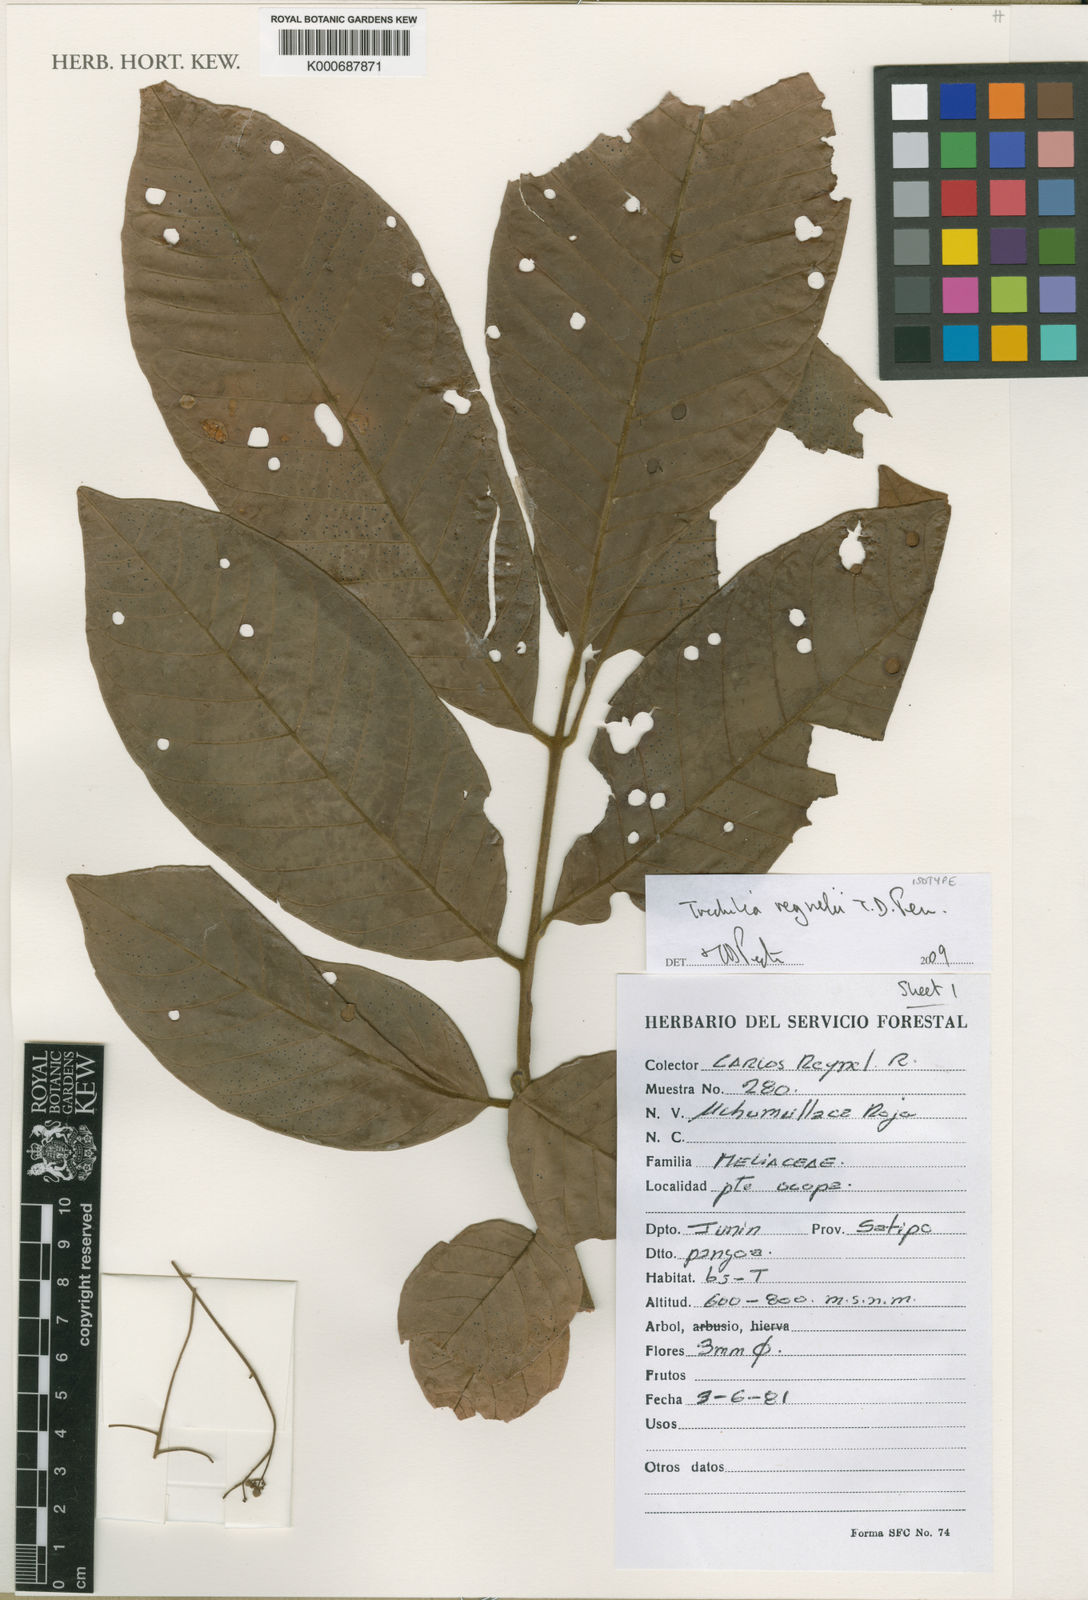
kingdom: Plantae
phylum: Tracheophyta
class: Magnoliopsida
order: Sapindales
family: Meliaceae
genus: Trichilia
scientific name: Trichilia
